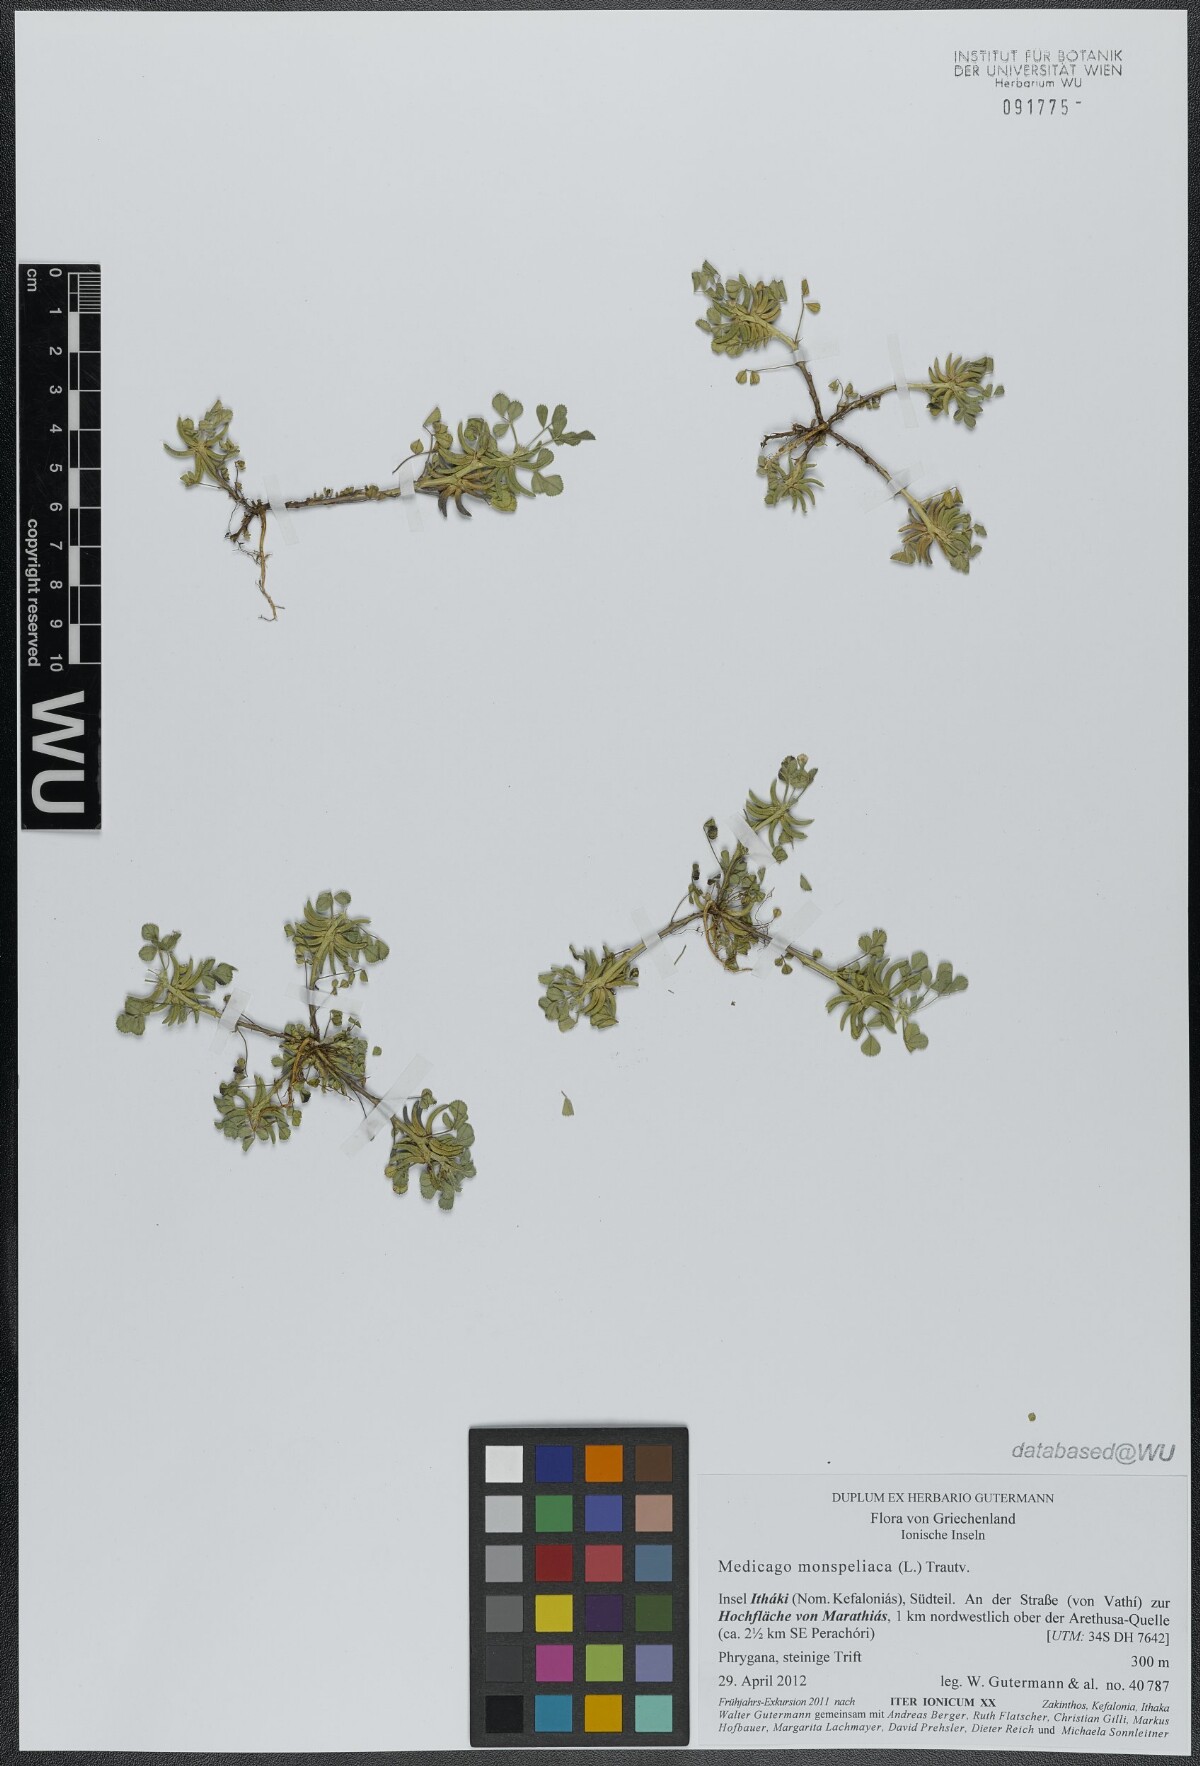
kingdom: Plantae
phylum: Tracheophyta
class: Magnoliopsida
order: Fabales
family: Fabaceae
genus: Medicago
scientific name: Medicago monspeliaca
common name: Hairy medick
